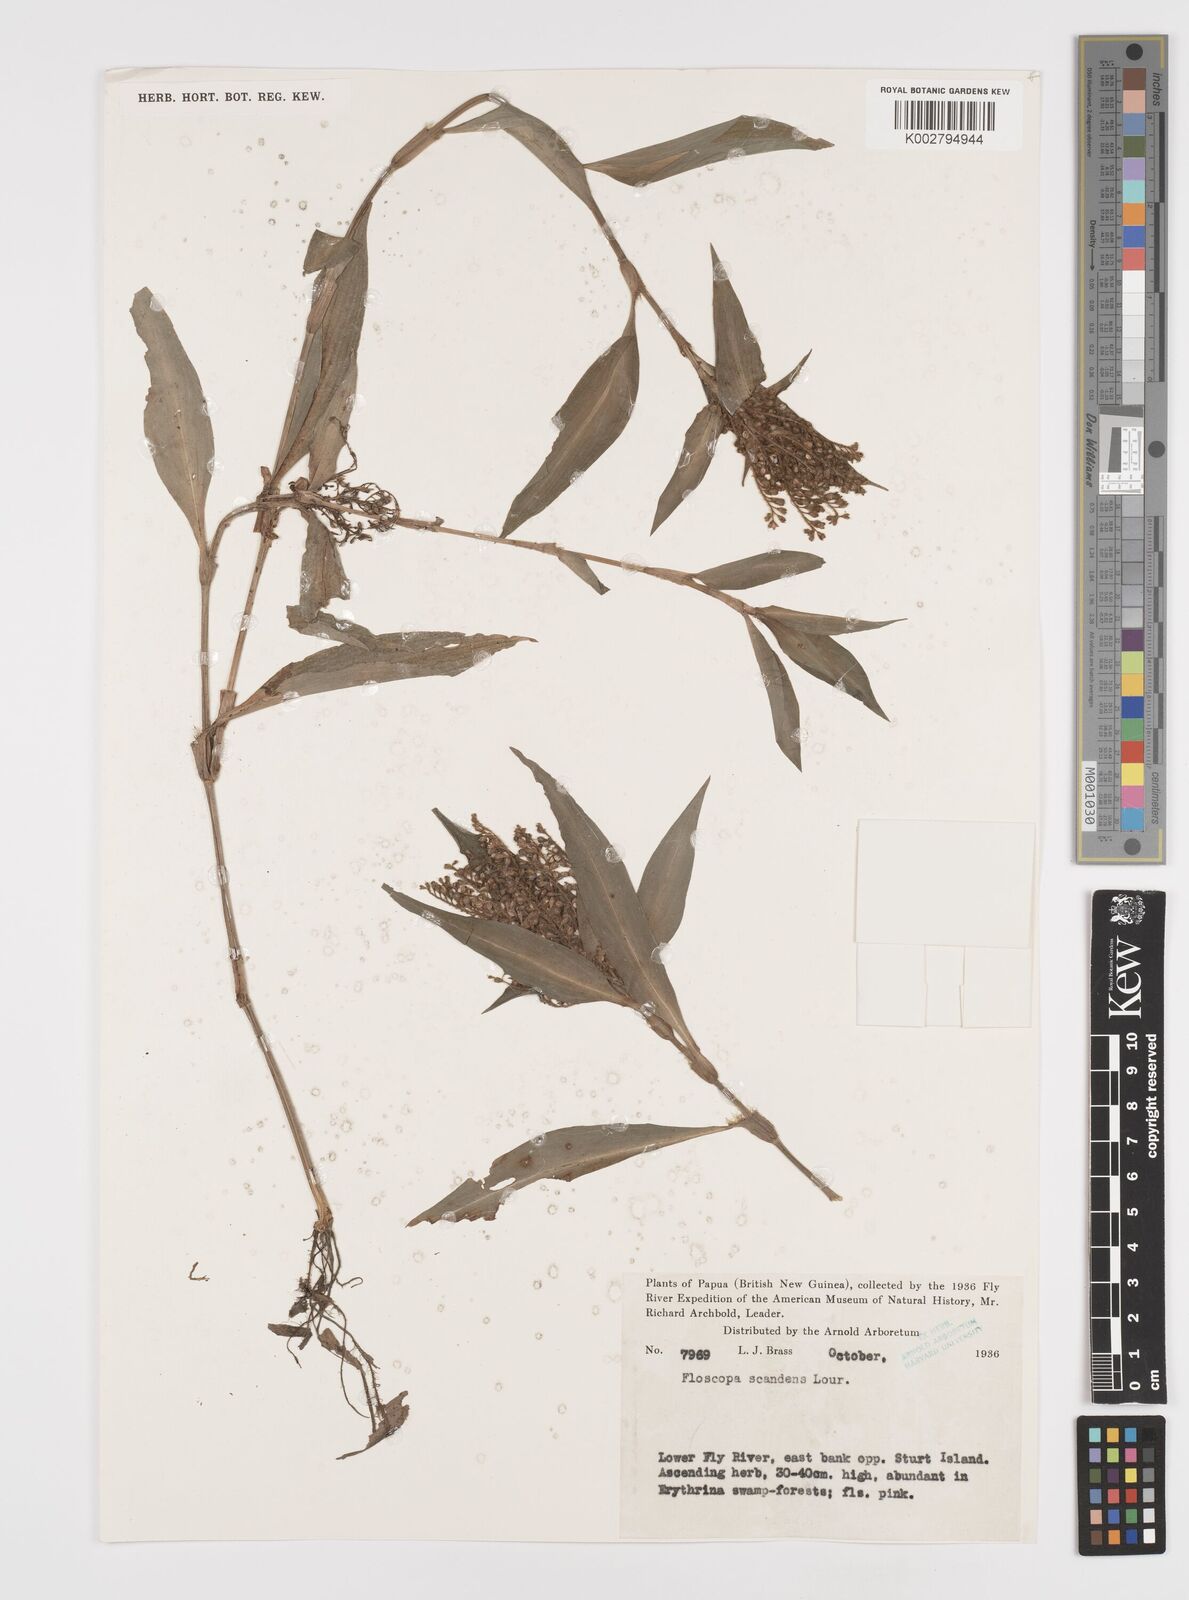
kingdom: Plantae
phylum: Tracheophyta
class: Liliopsida
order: Commelinales
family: Commelinaceae
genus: Floscopa
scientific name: Floscopa scandens
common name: Climbing flower cup
